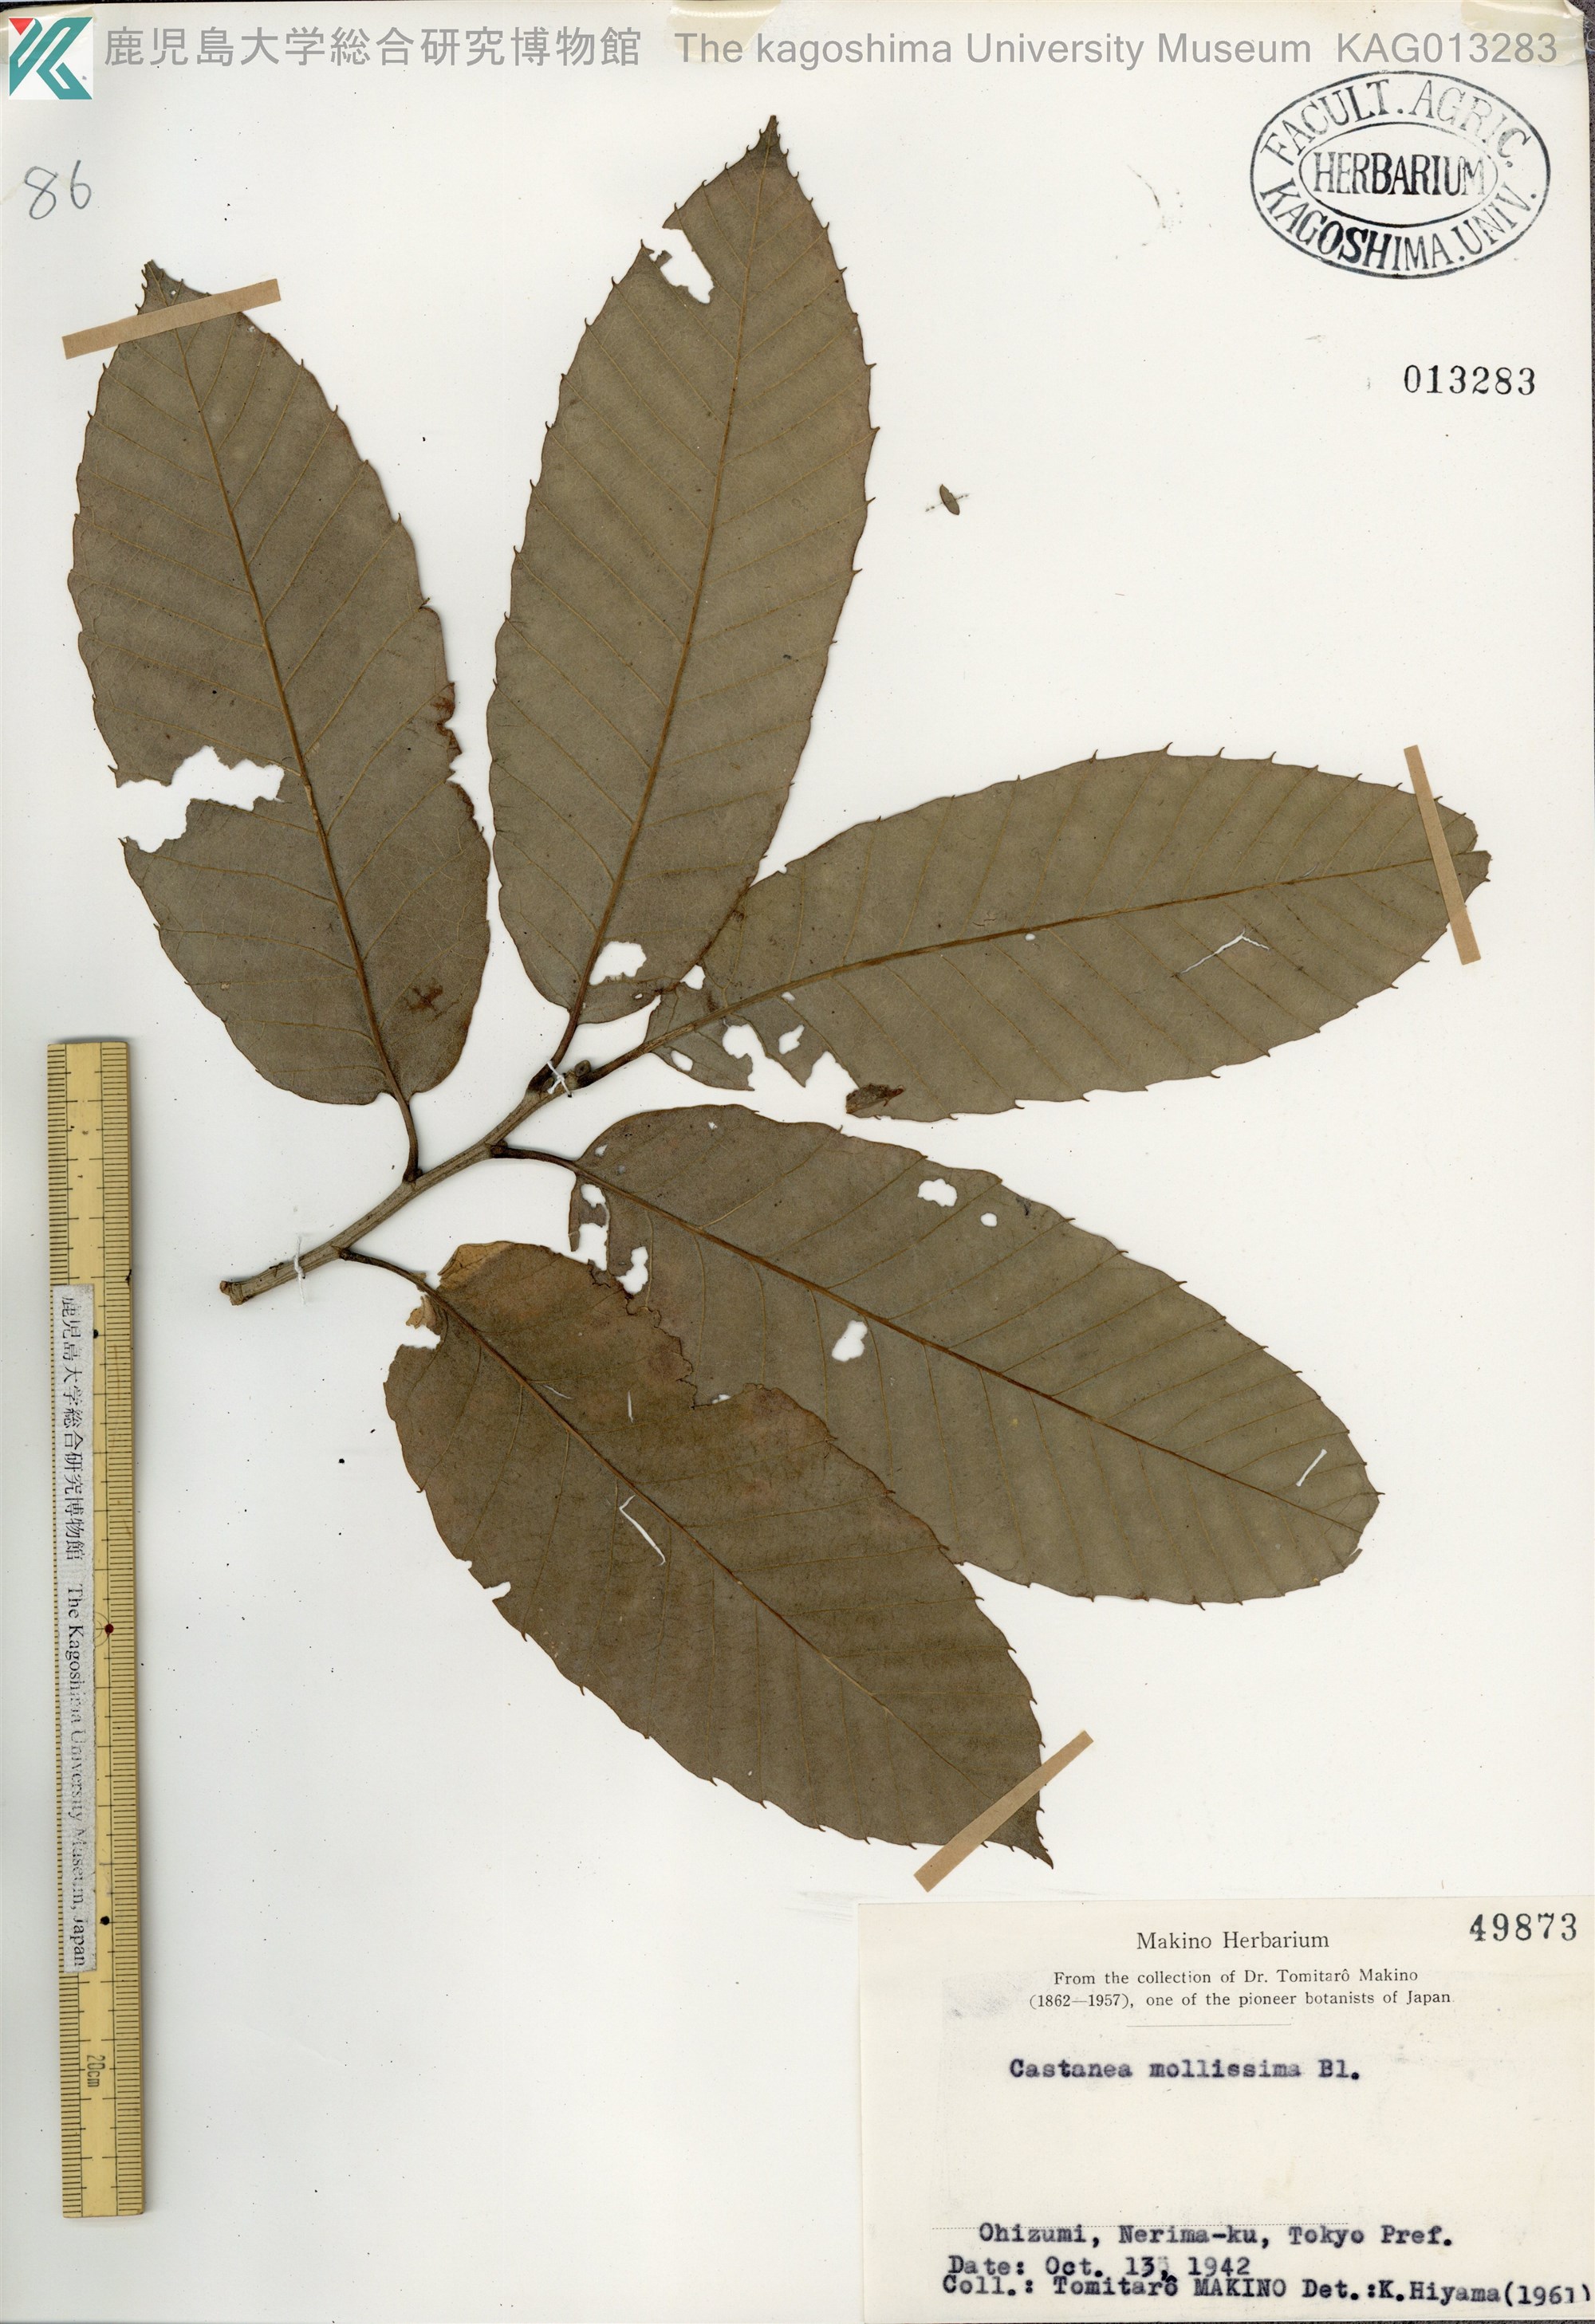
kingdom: Plantae
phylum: Tracheophyta
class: Magnoliopsida
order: Fagales
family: Fagaceae
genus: Castanea
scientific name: Castanea mollissima
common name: Chinese chestnut
